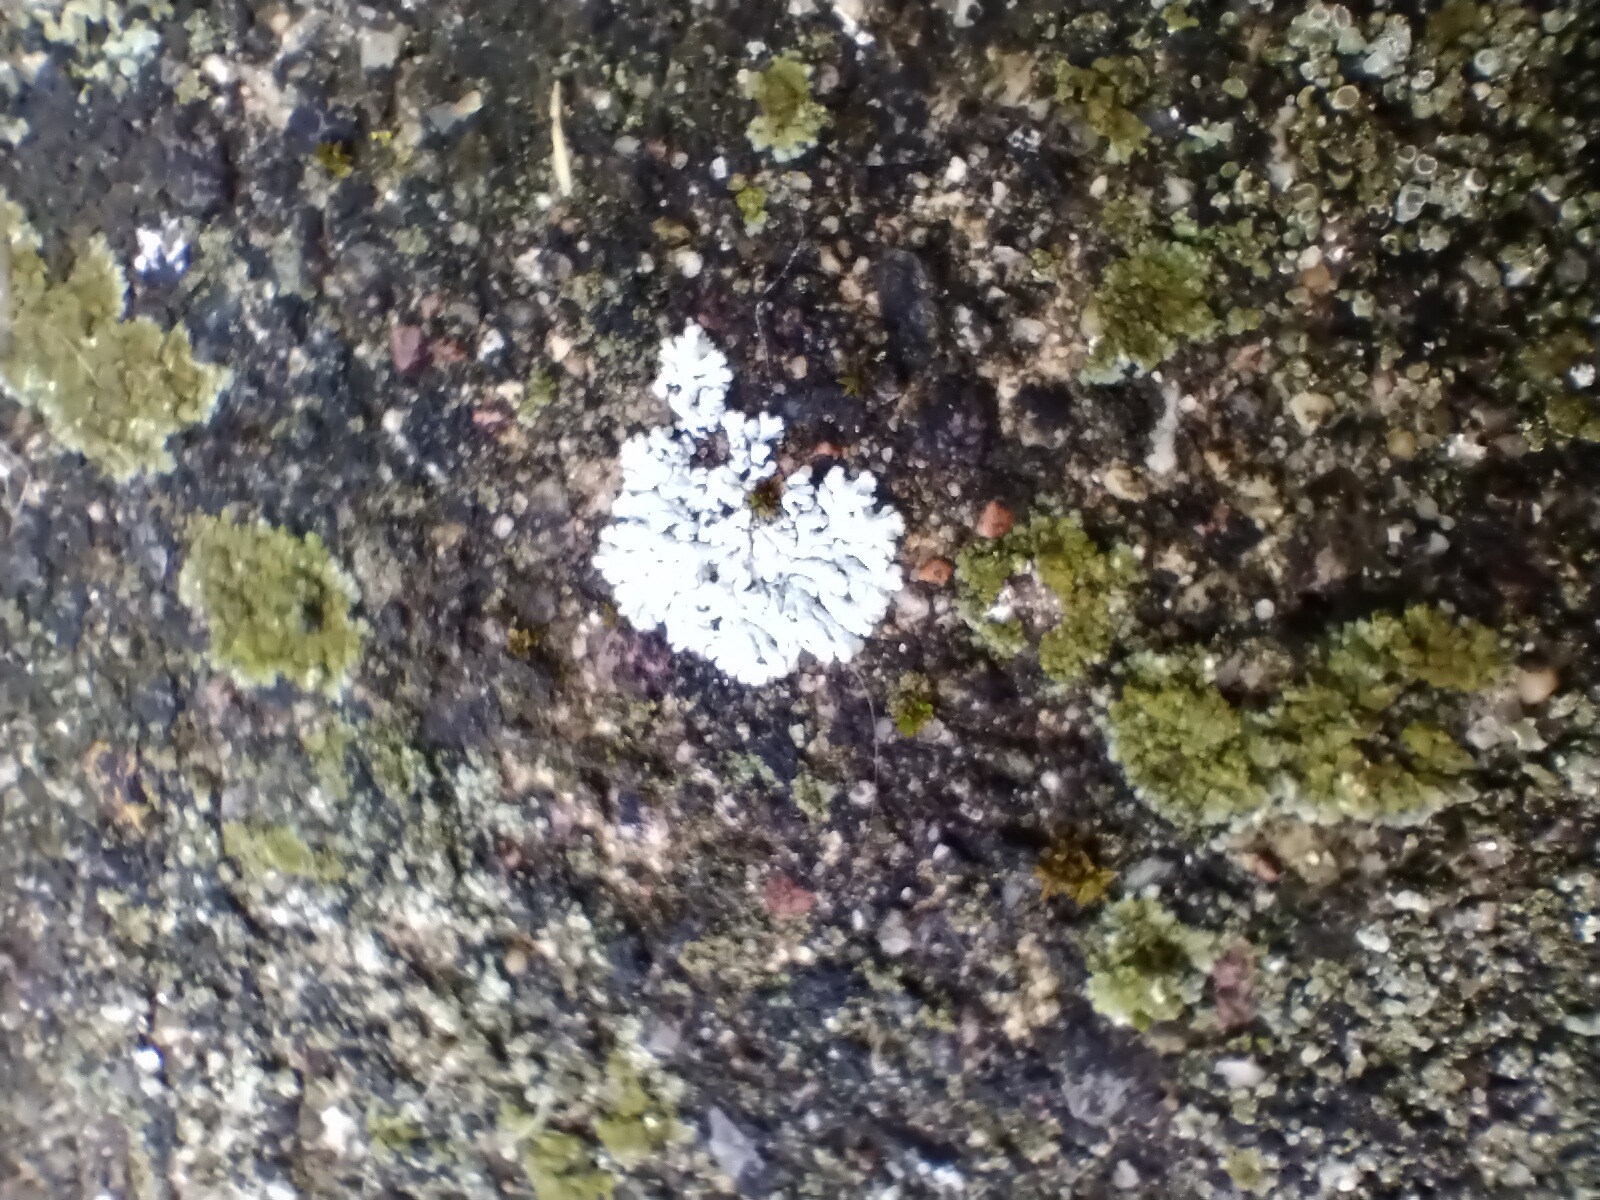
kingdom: Fungi
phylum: Ascomycota
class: Lecanoromycetes
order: Caliciales
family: Physciaceae
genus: Physcia
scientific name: Physcia
